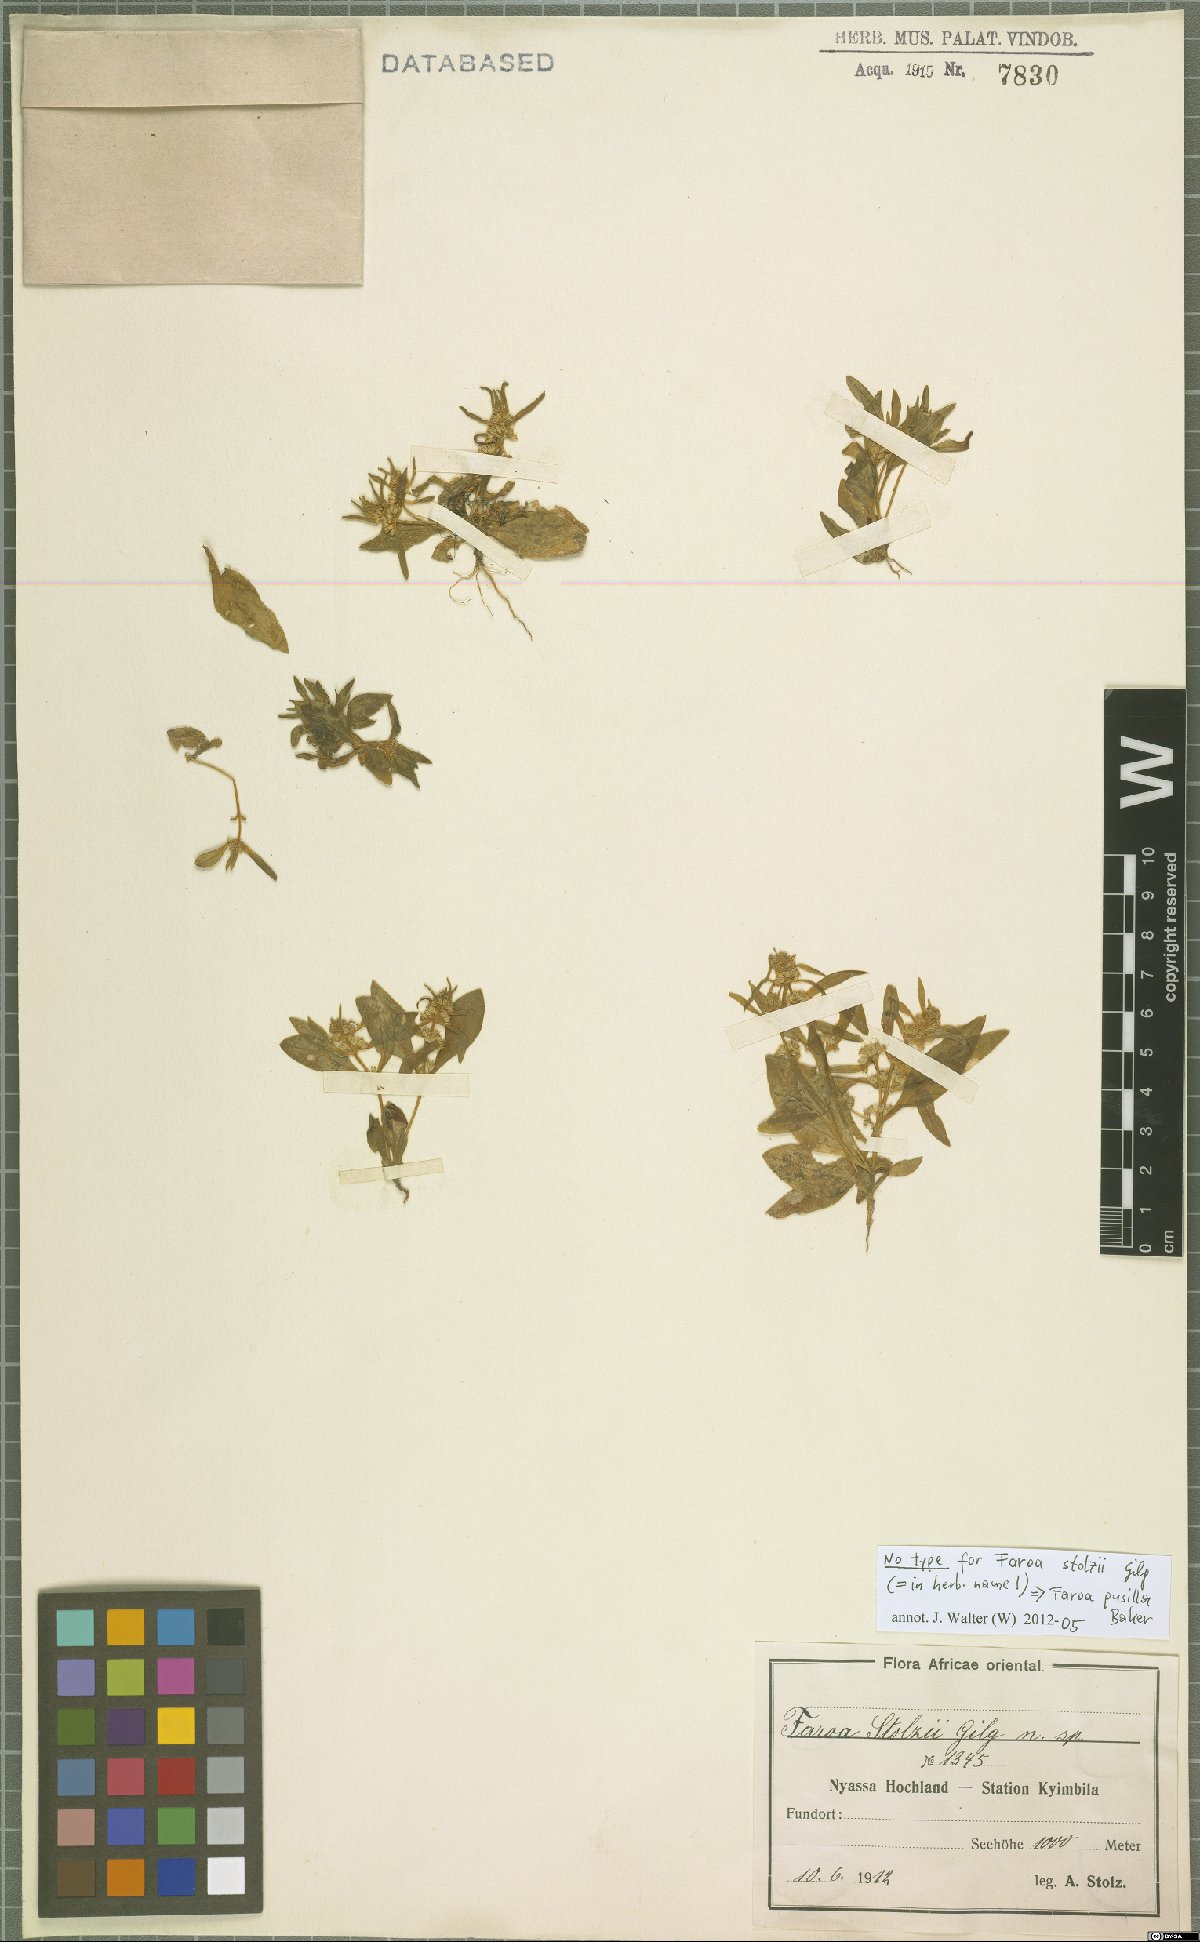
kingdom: Plantae
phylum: Tracheophyta
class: Magnoliopsida
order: Gentianales
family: Gentianaceae
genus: Faroa
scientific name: Faroa pusilla
